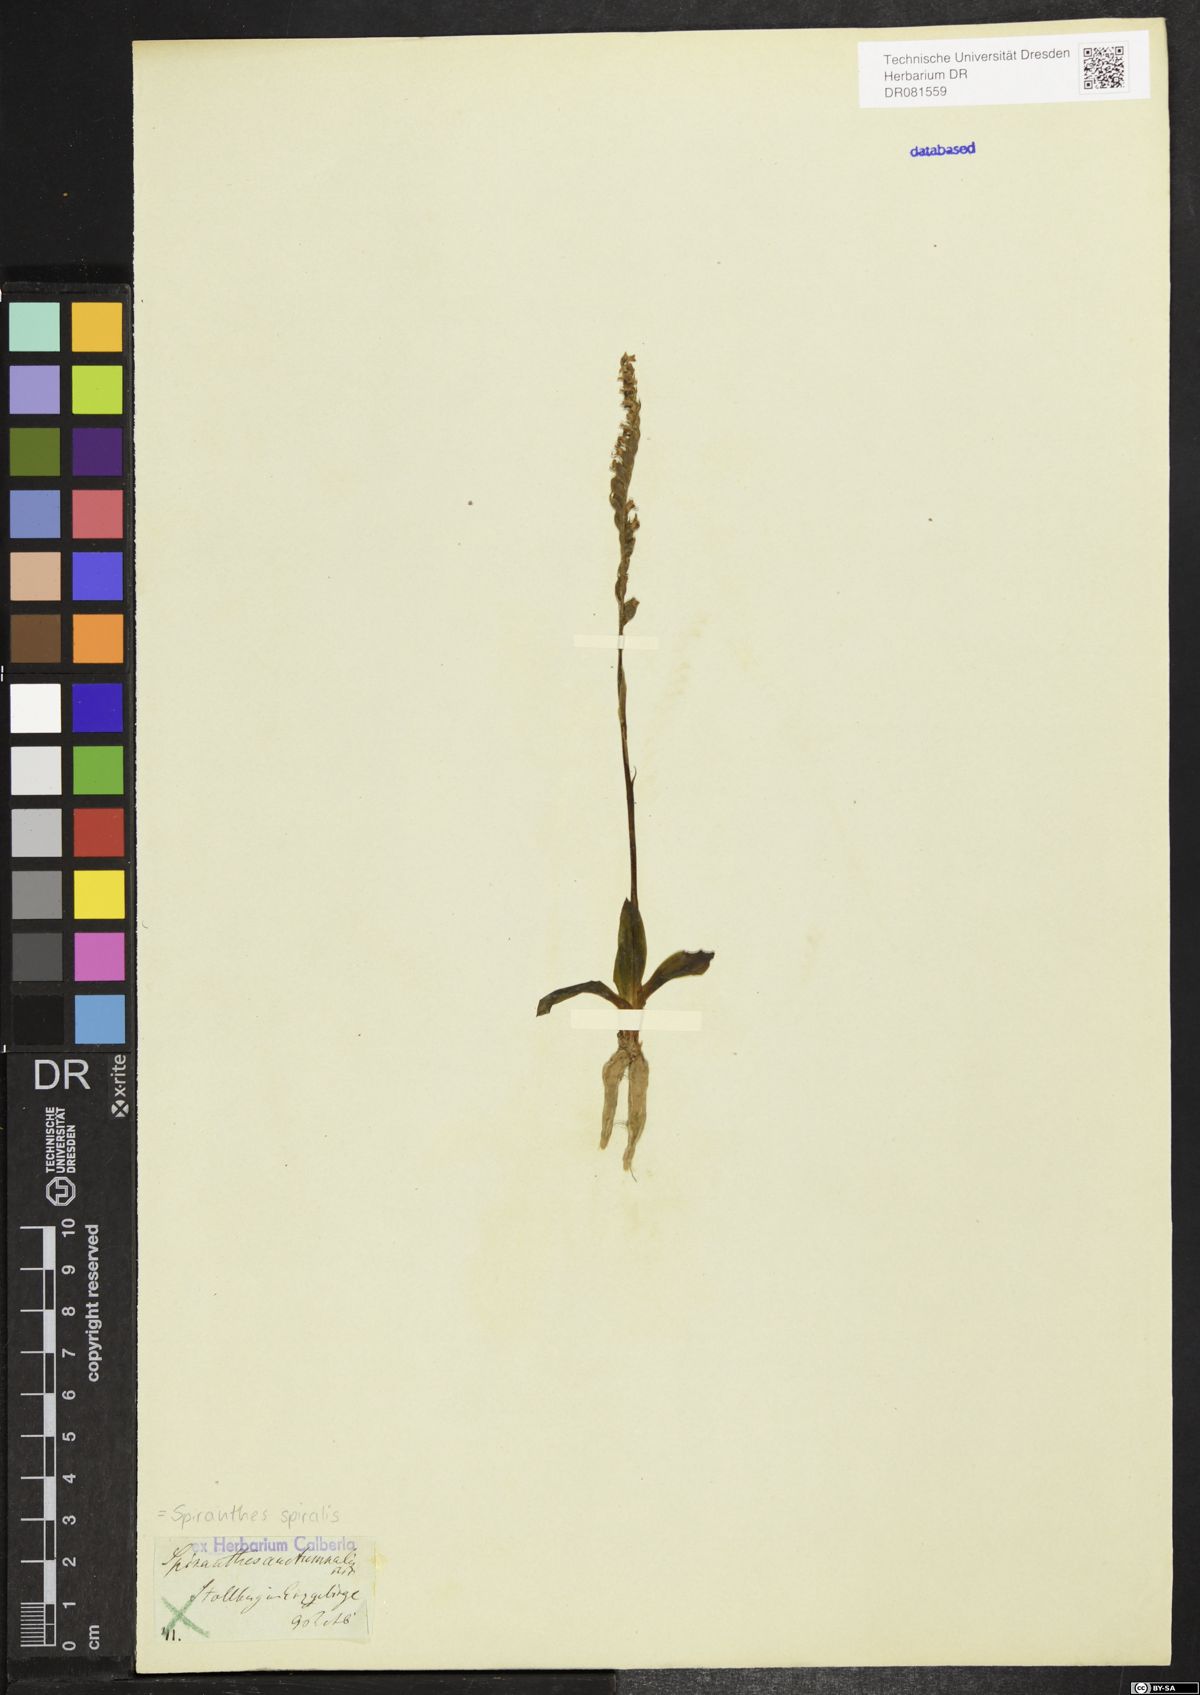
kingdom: Plantae
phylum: Tracheophyta
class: Liliopsida
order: Asparagales
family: Orchidaceae
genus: Spiranthes
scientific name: Spiranthes spiralis
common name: Autumn lady's-tresses
